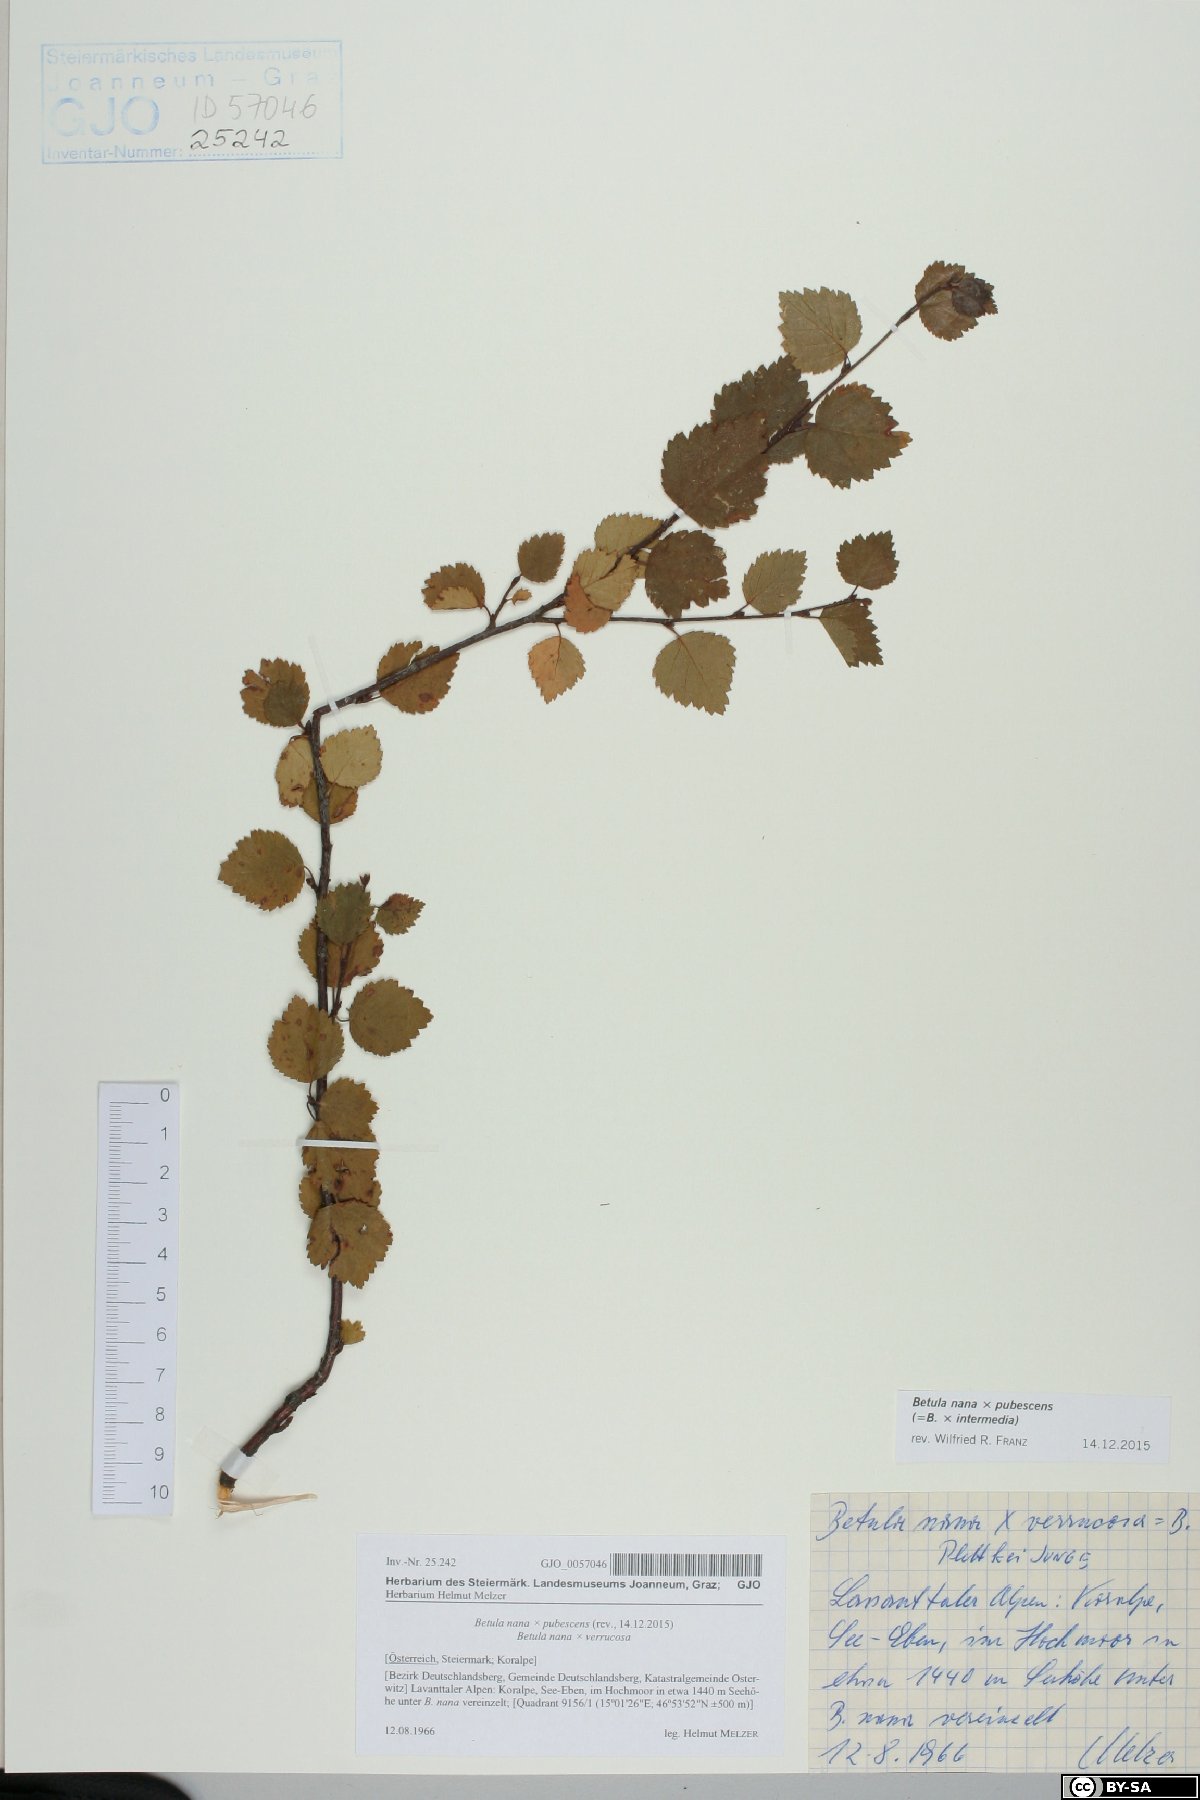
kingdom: Plantae
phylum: Tracheophyta
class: Magnoliopsida
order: Fagales
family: Betulaceae
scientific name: Betulaceae
